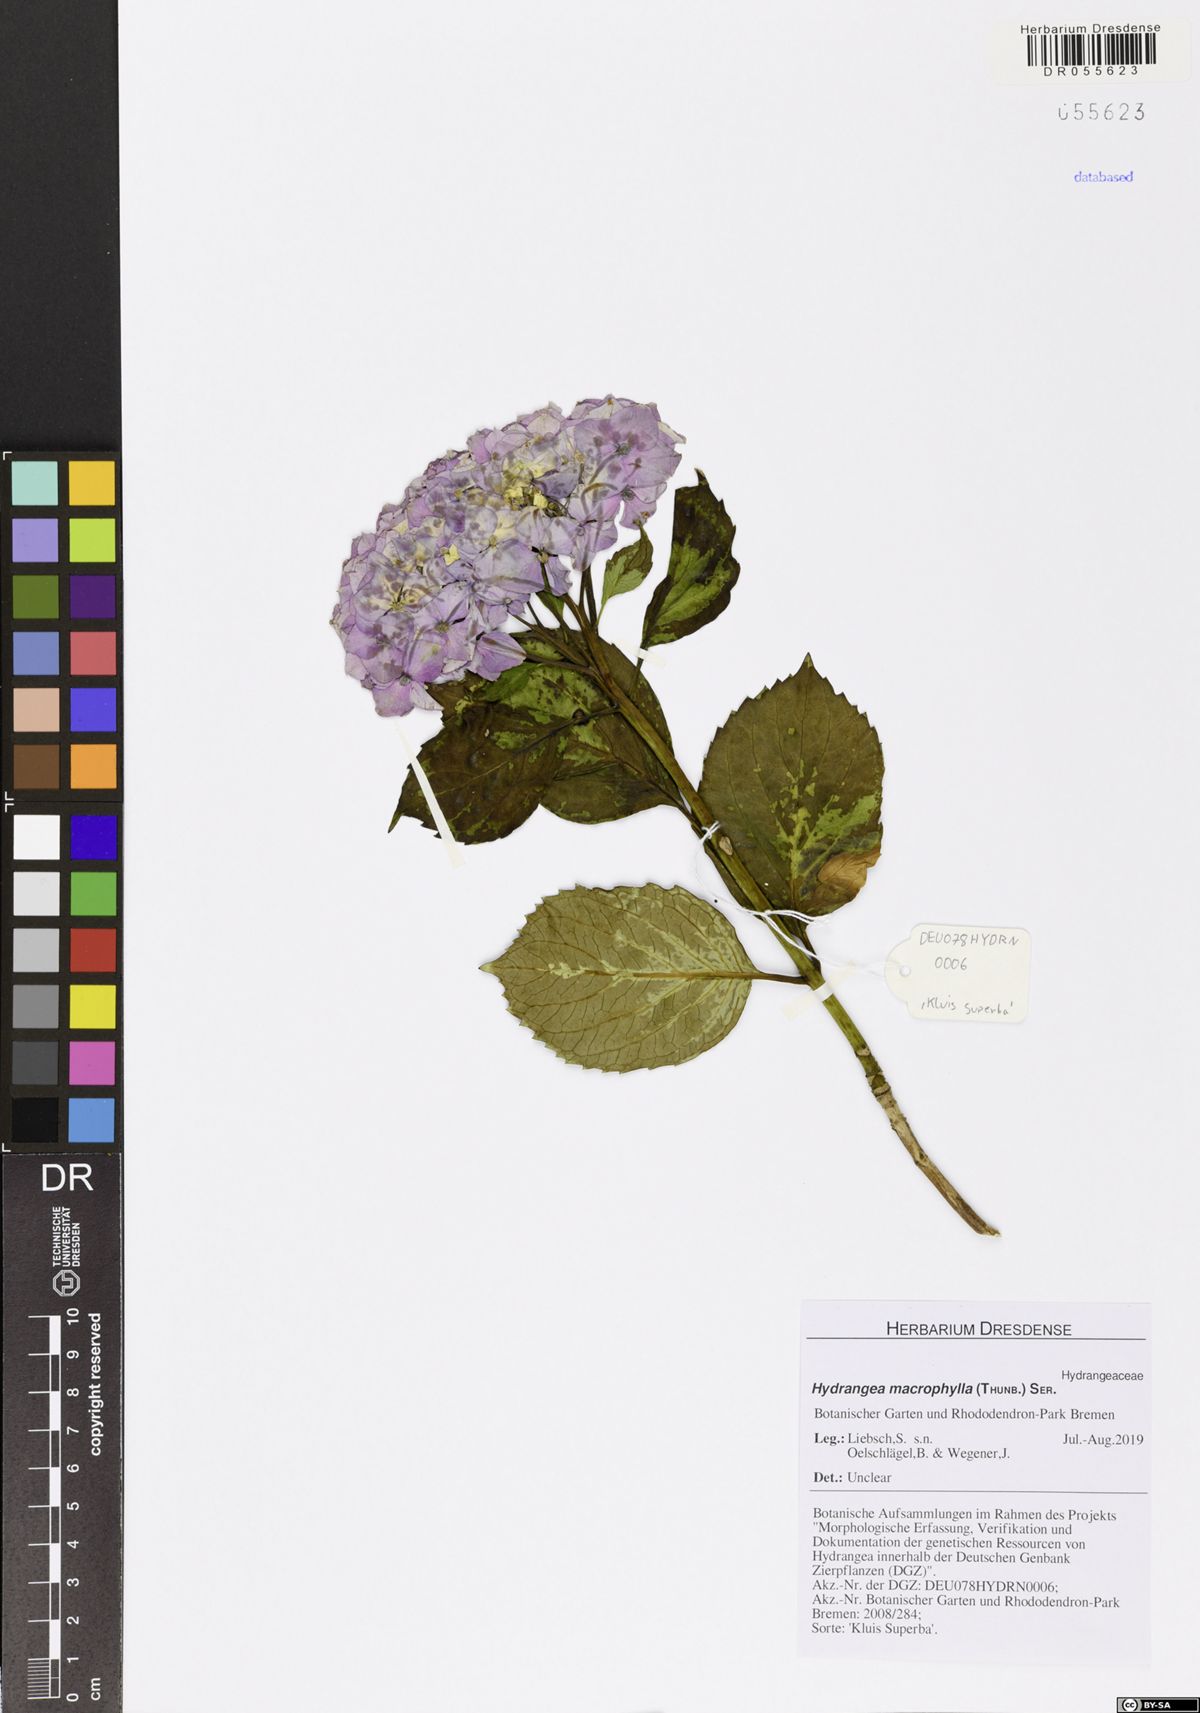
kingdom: Plantae
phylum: Tracheophyta
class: Magnoliopsida
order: Cornales
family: Hydrangeaceae
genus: Hydrangea
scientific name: Hydrangea macrophylla
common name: Hydrangea
